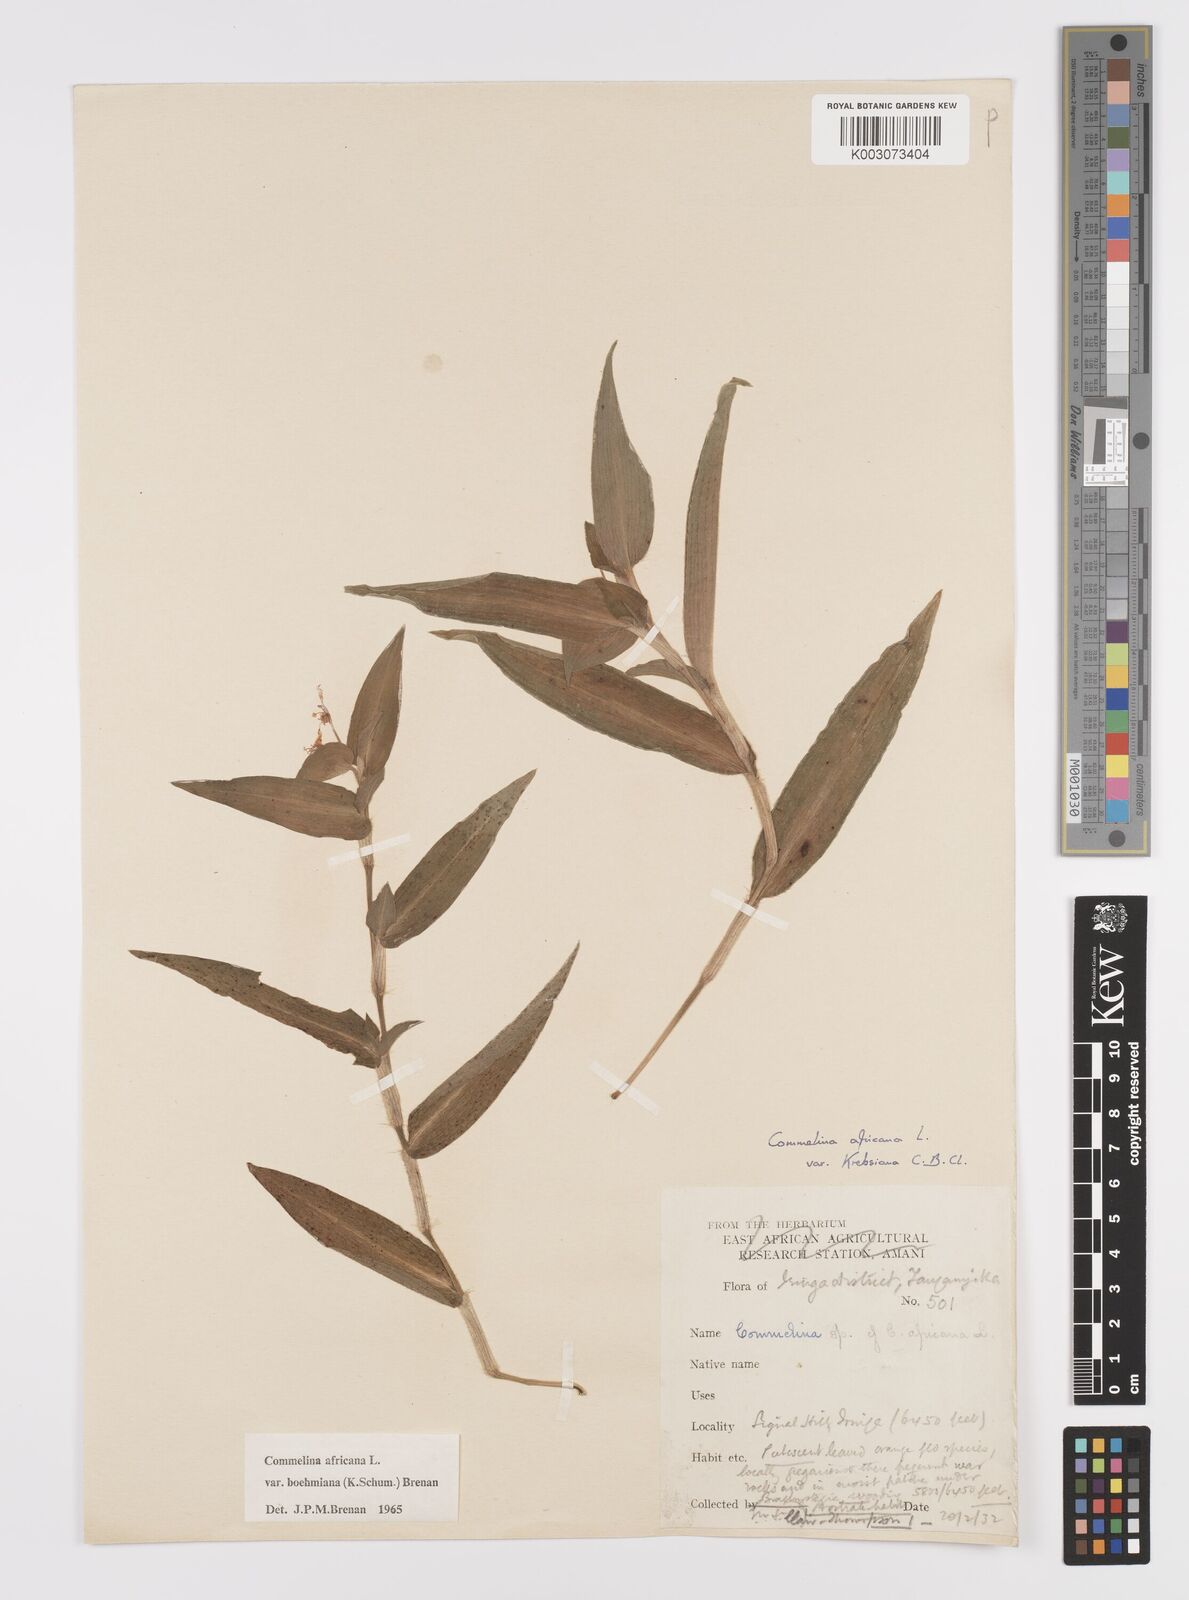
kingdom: Plantae
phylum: Tracheophyta
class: Liliopsida
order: Commelinales
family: Commelinaceae
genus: Commelina
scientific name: Commelina africana
